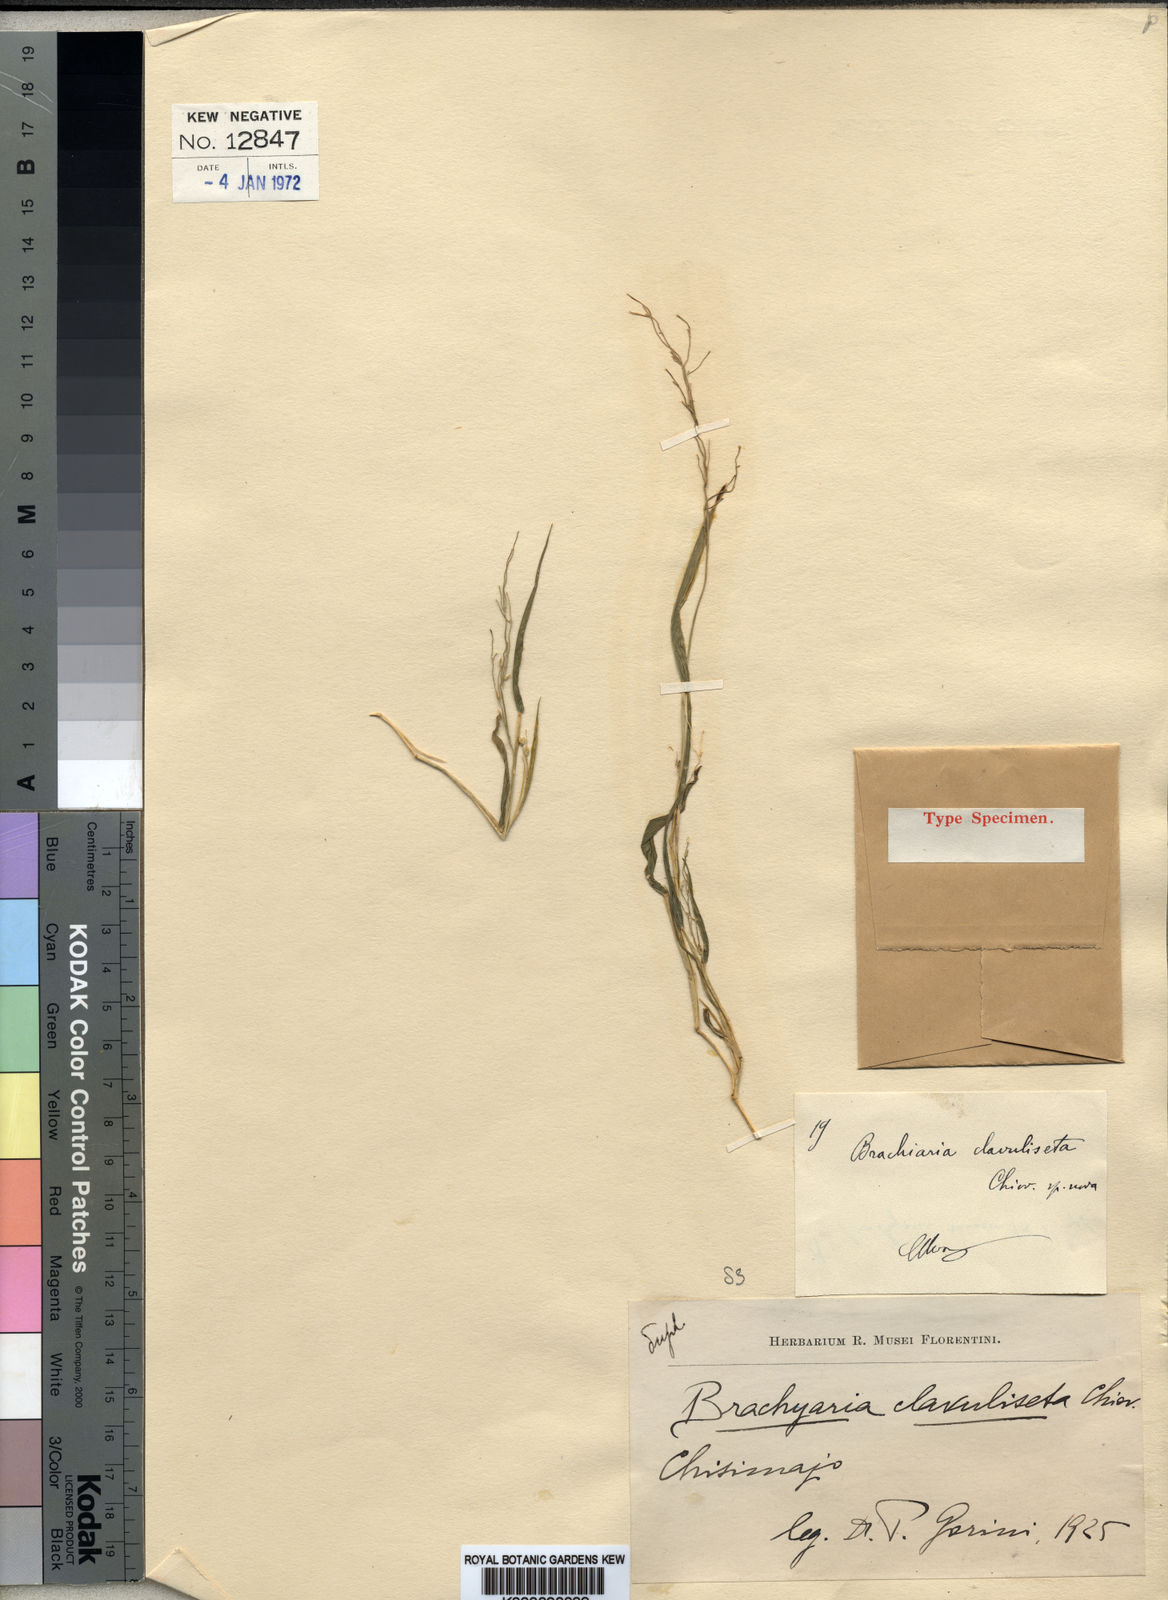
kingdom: Plantae
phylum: Tracheophyta
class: Liliopsida
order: Poales
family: Poaceae
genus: Urochloa
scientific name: Urochloa deflexa
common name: Guinea millet
